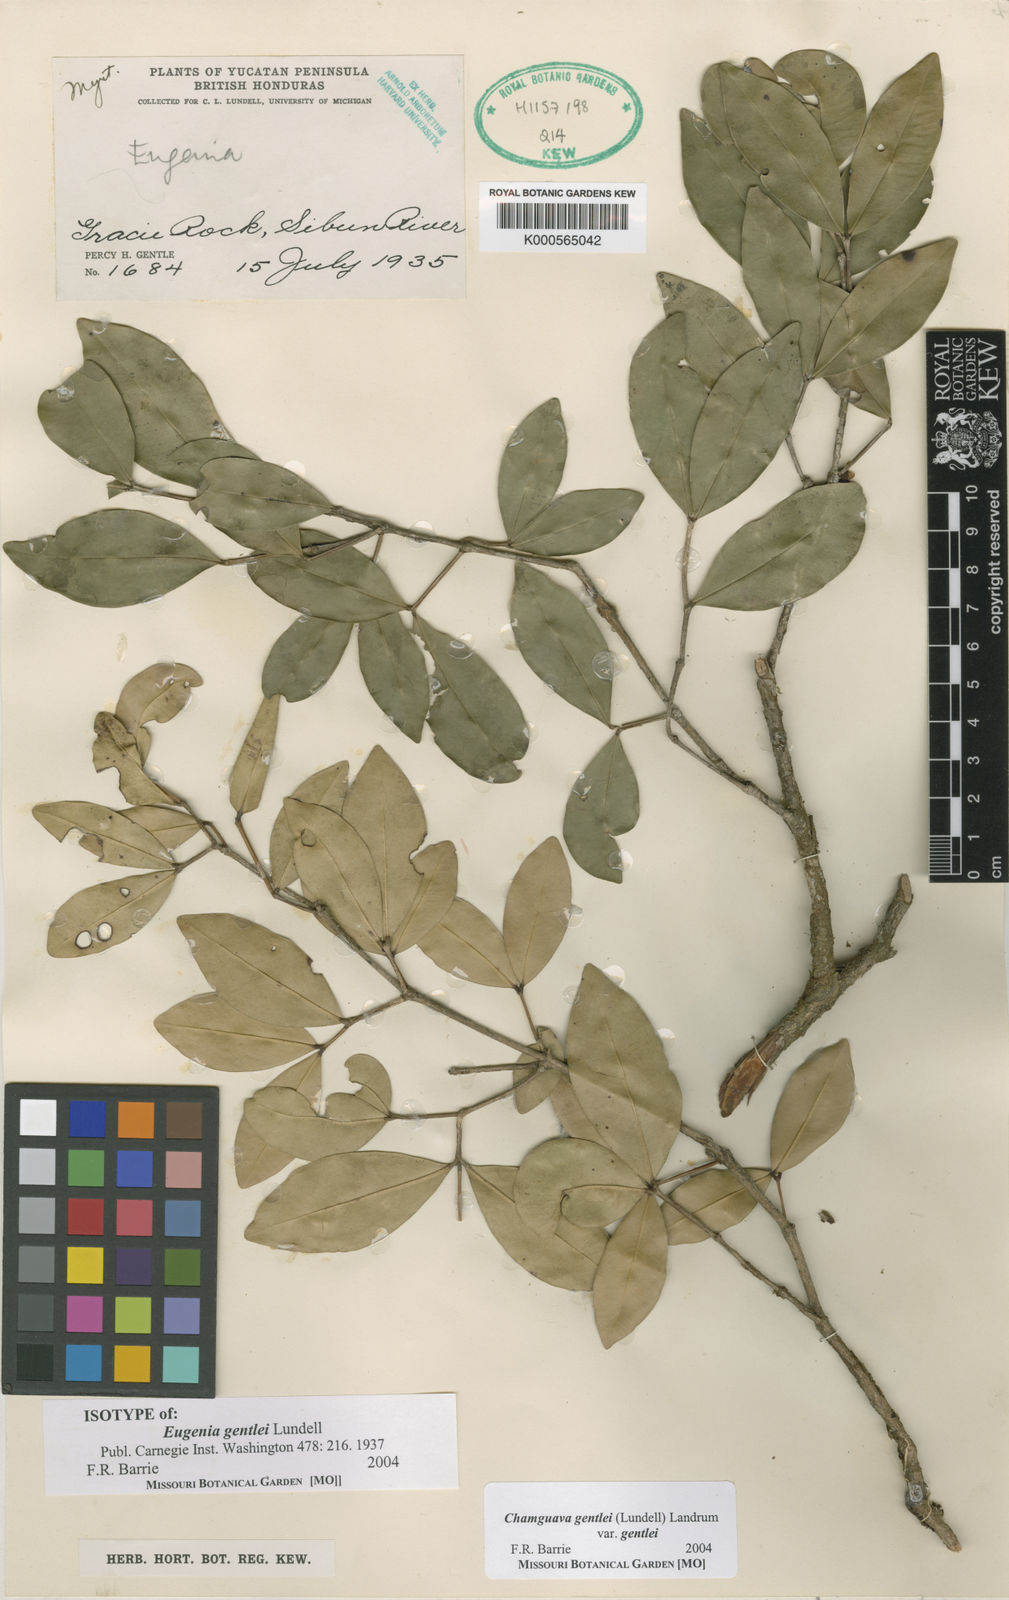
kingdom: Plantae
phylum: Tracheophyta
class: Magnoliopsida
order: Myrtales
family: Myrtaceae
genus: Chamguava
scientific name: Chamguava gentlei
